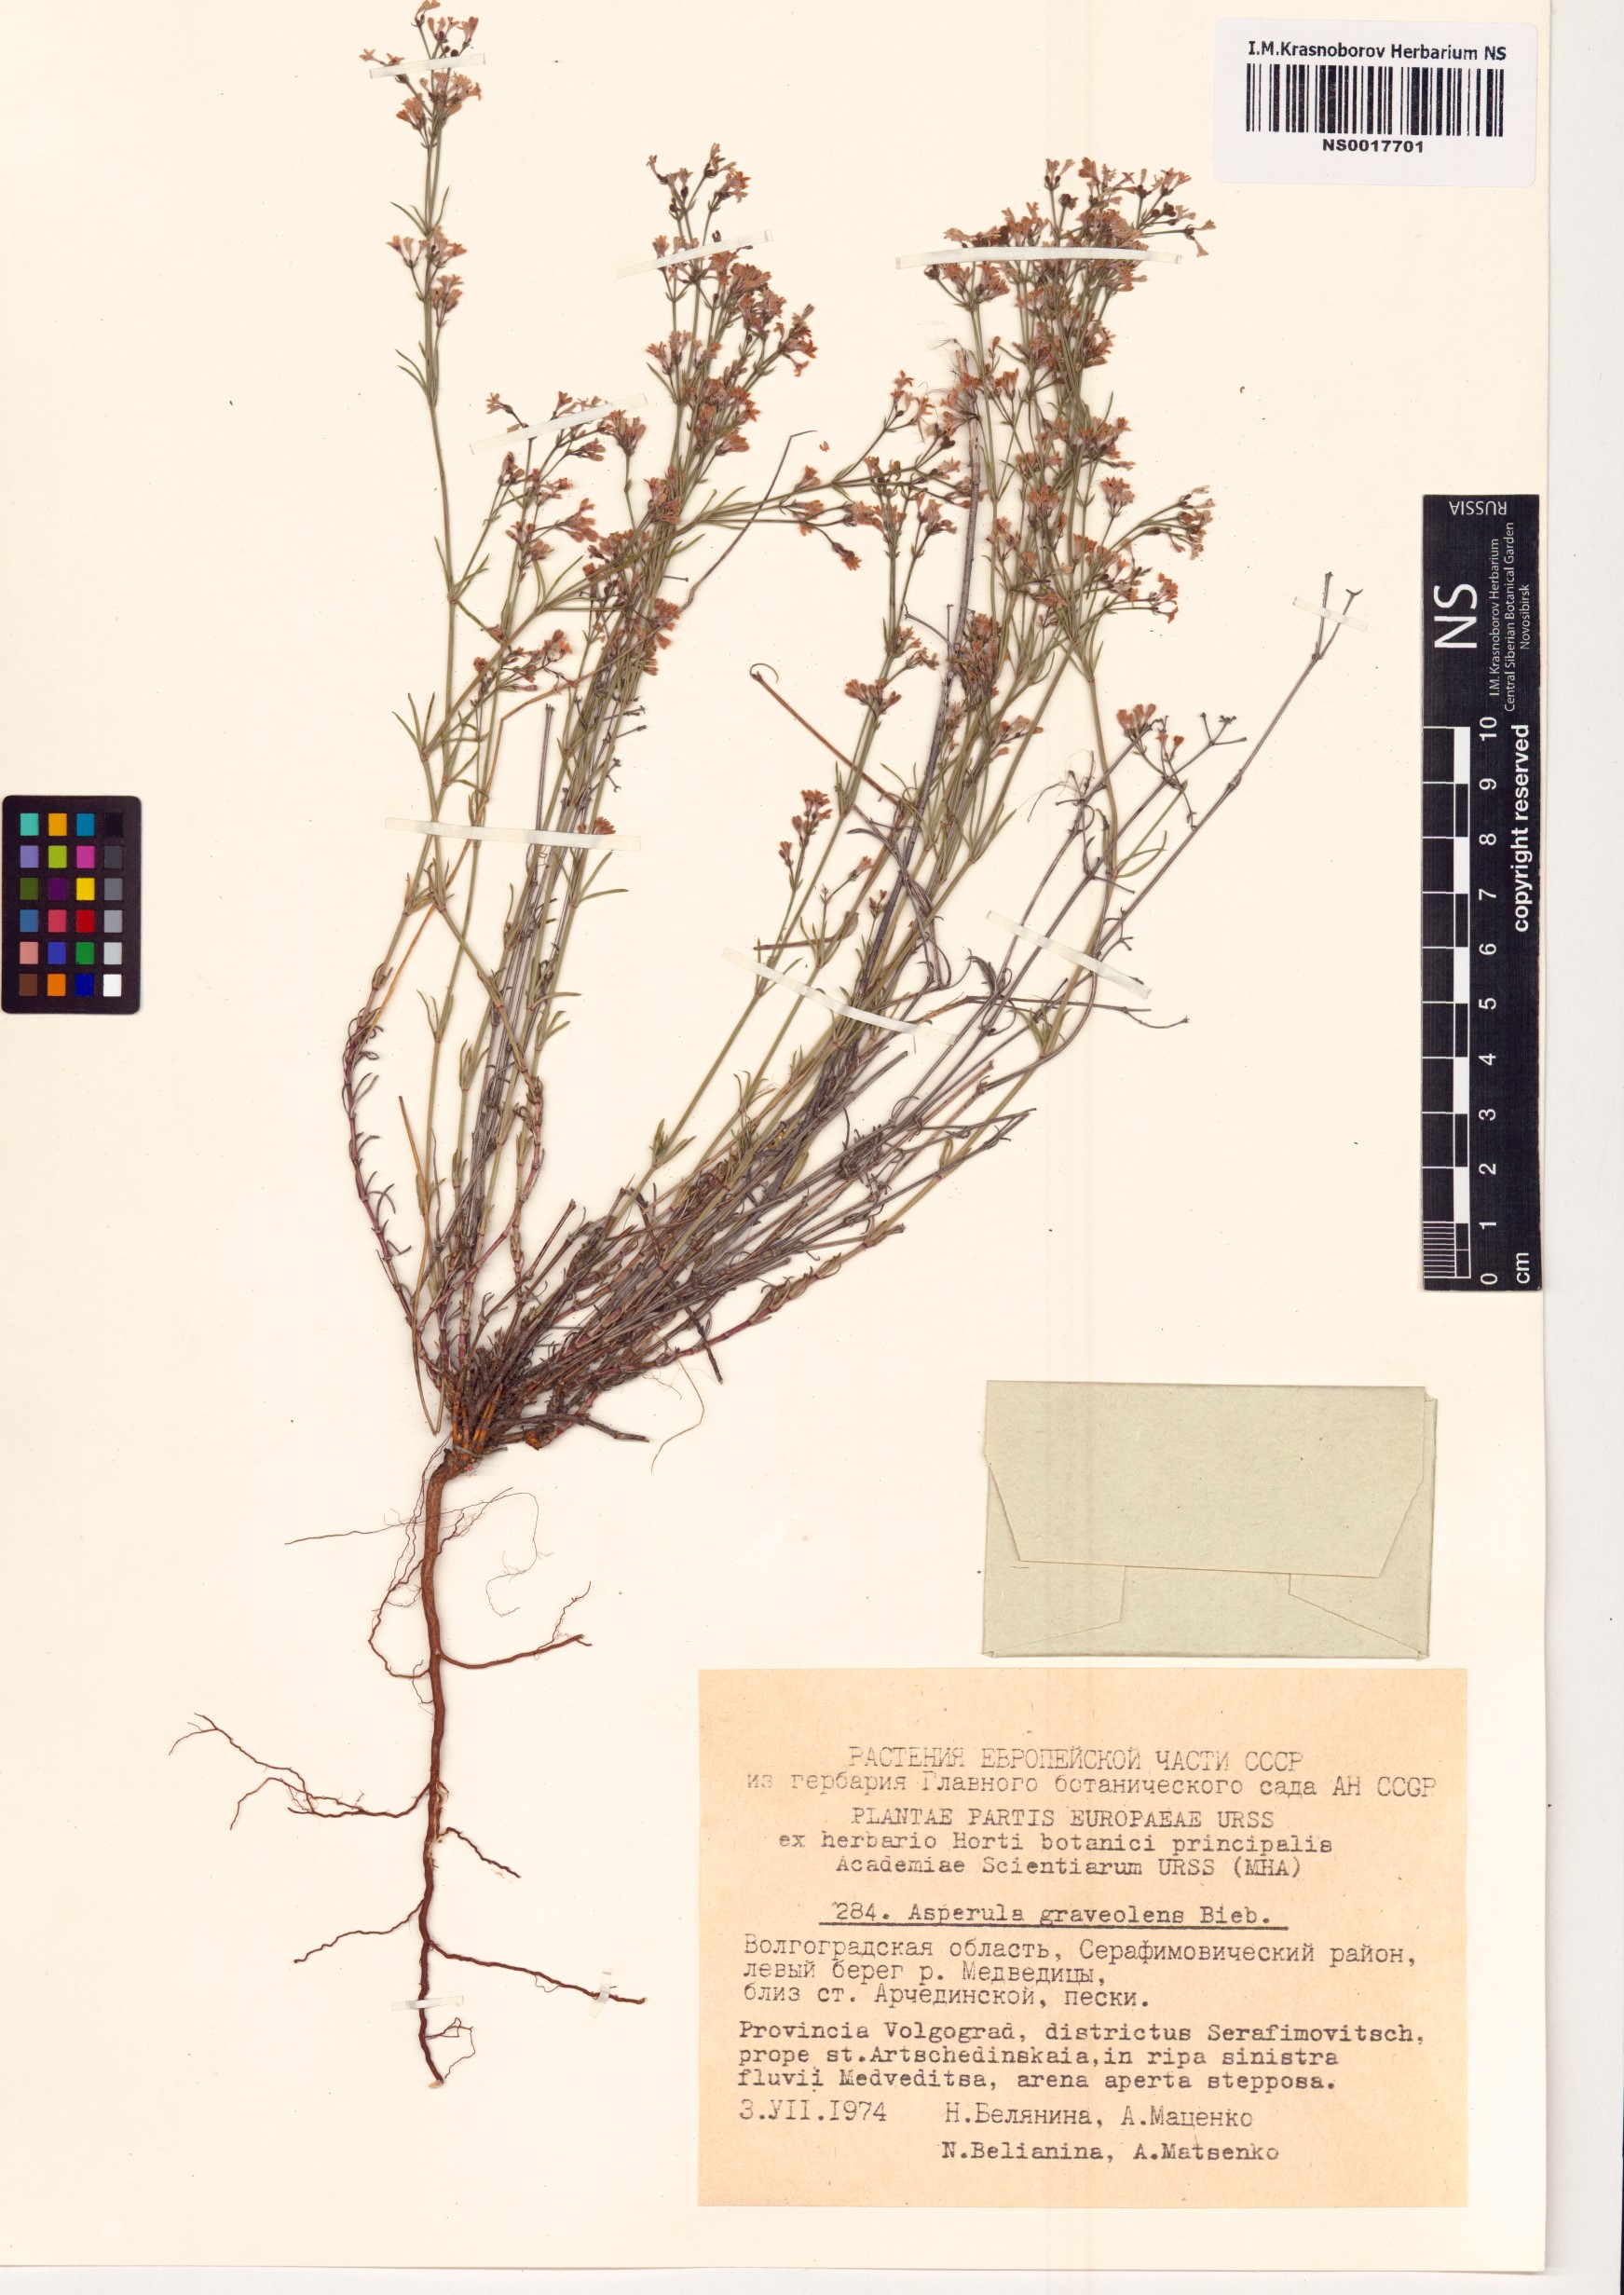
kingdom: Plantae
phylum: Tracheophyta
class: Magnoliopsida
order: Gentianales
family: Rubiaceae
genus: Cynanchica
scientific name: Cynanchica graveolens
